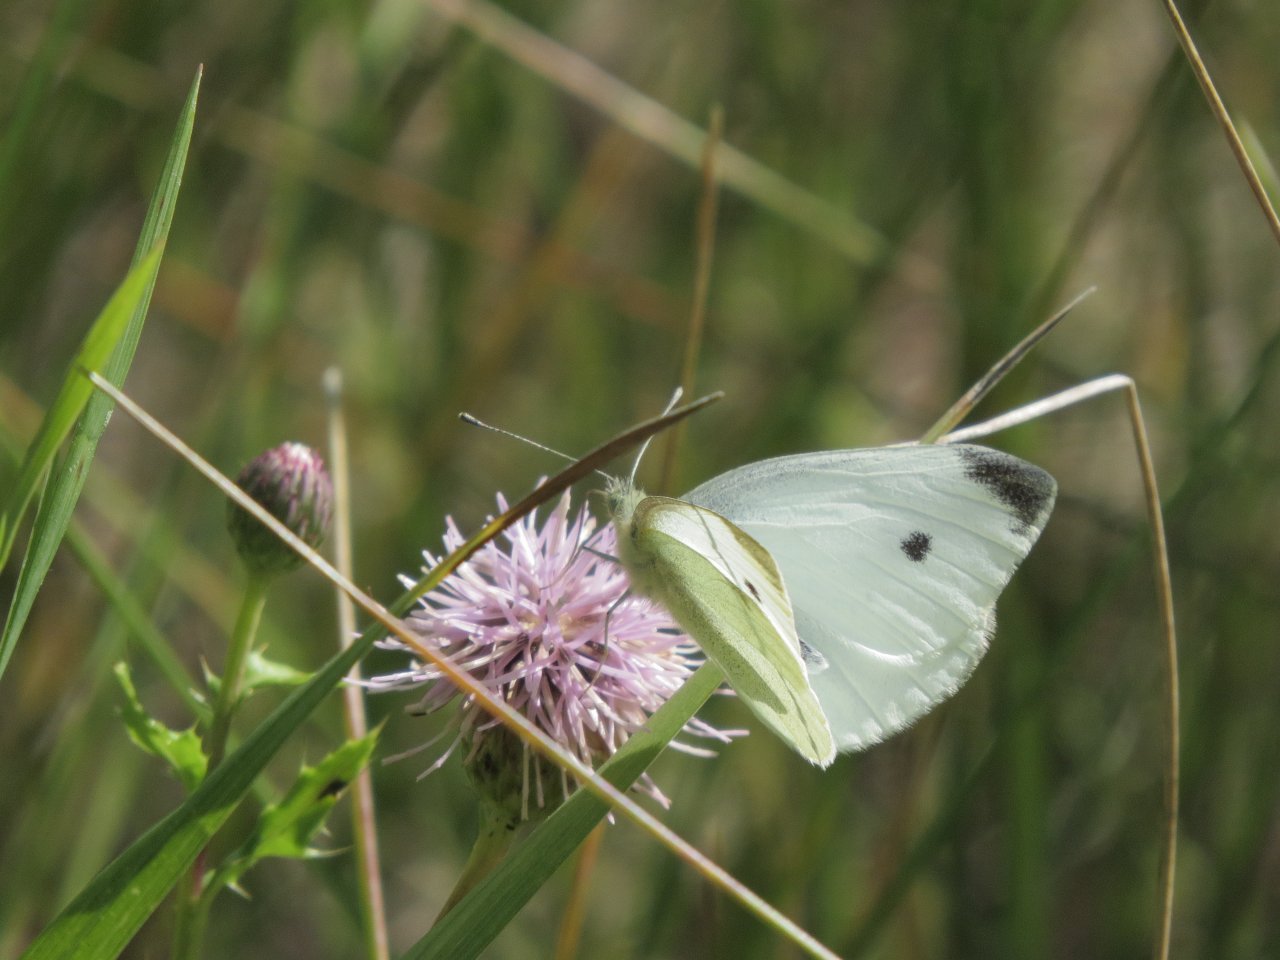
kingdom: Animalia
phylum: Arthropoda
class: Insecta
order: Lepidoptera
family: Pieridae
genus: Pieris
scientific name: Pieris rapae
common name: Cabbage White
